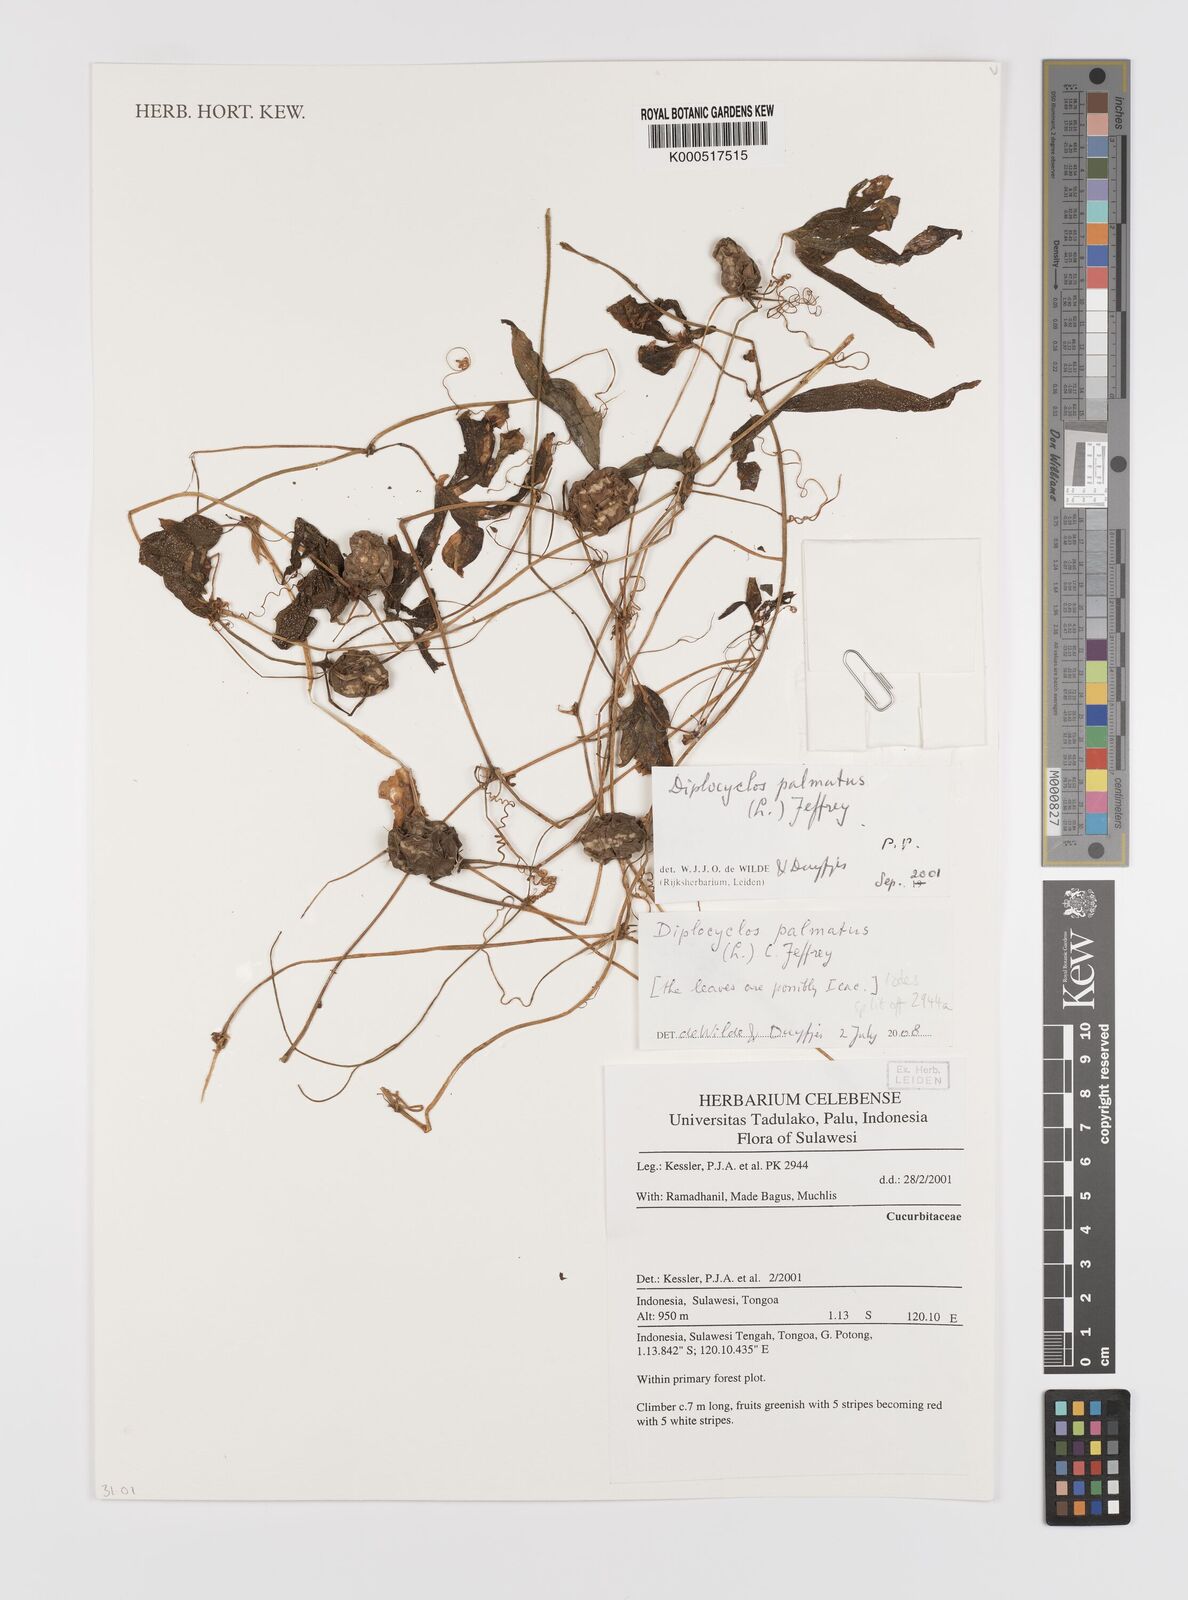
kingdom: Plantae
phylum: Tracheophyta
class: Magnoliopsida
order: Cucurbitales
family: Cucurbitaceae
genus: Diplocyclos
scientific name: Diplocyclos palmatus
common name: Striped-cucumber
